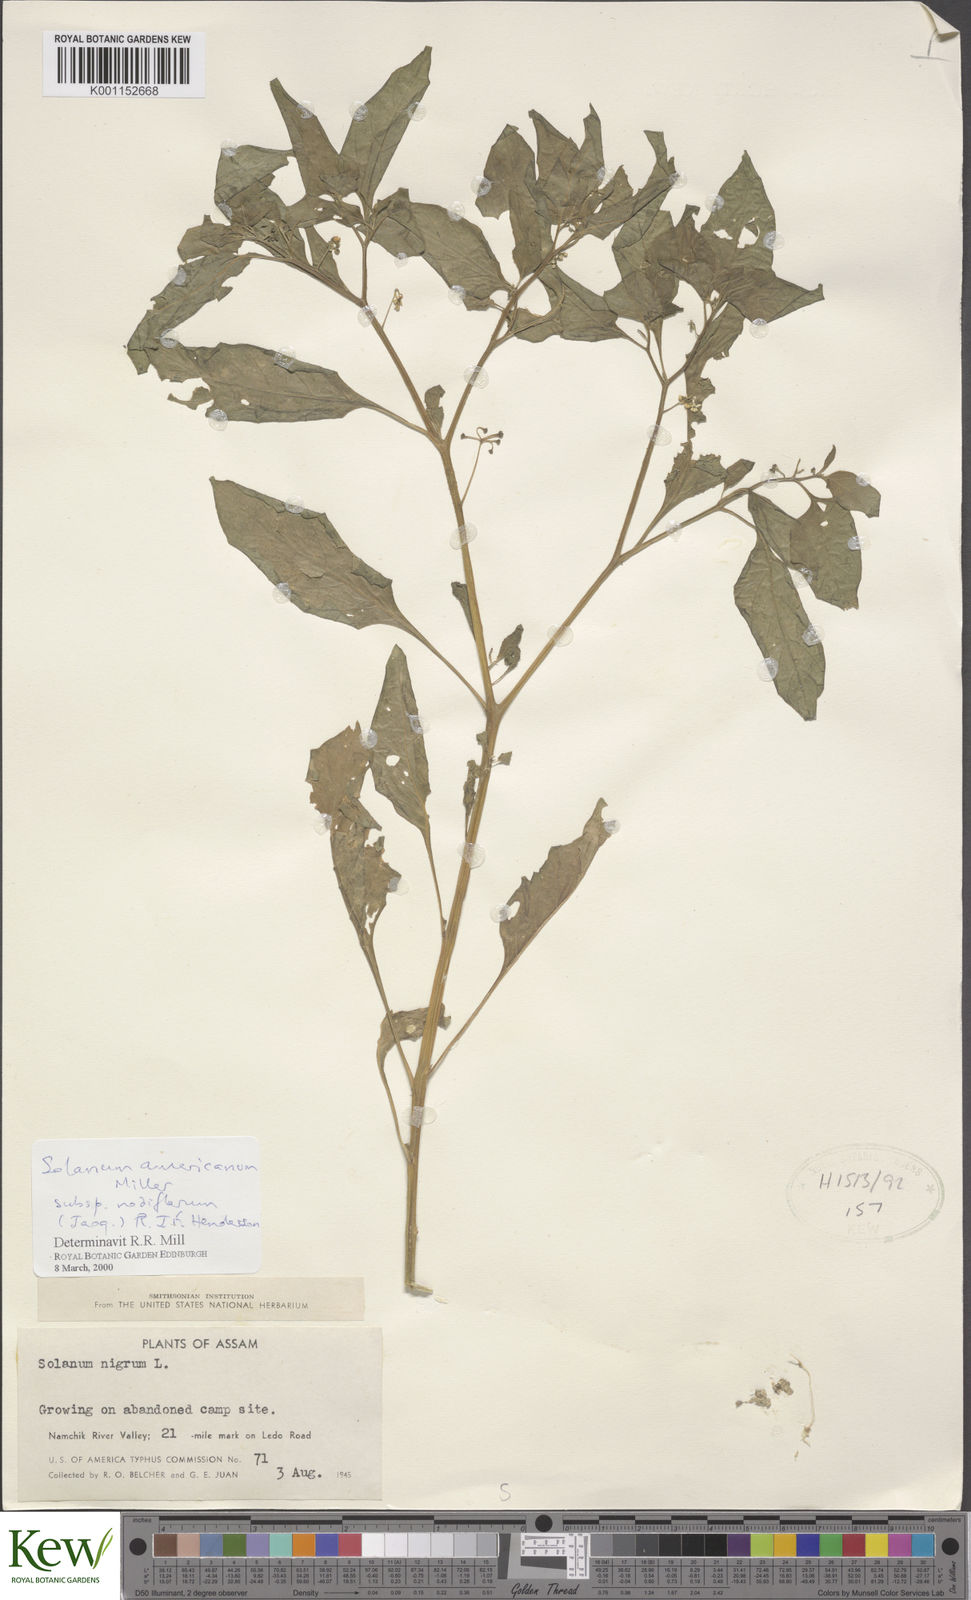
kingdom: Plantae
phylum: Tracheophyta
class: Magnoliopsida
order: Solanales
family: Solanaceae
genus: Solanum
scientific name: Solanum nigrum
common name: Black nightshade
